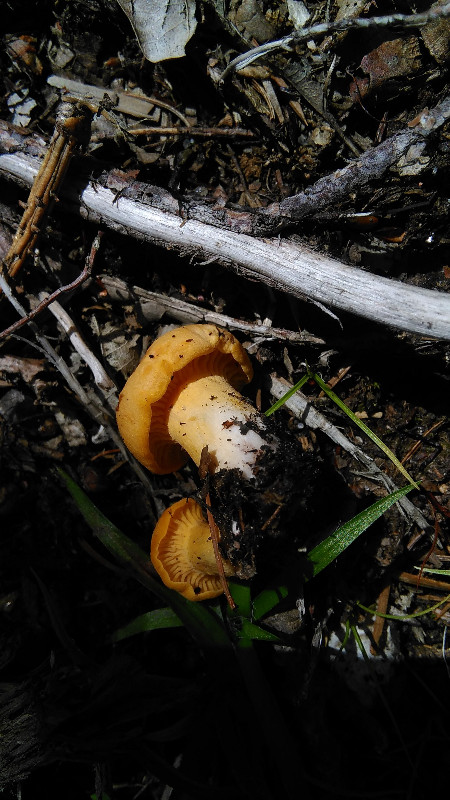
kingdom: Fungi
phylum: Basidiomycota
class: Agaricomycetes
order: Cantharellales
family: Hydnaceae
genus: Cantharellus
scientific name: Cantharellus cibarius
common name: almindelig kantarel
